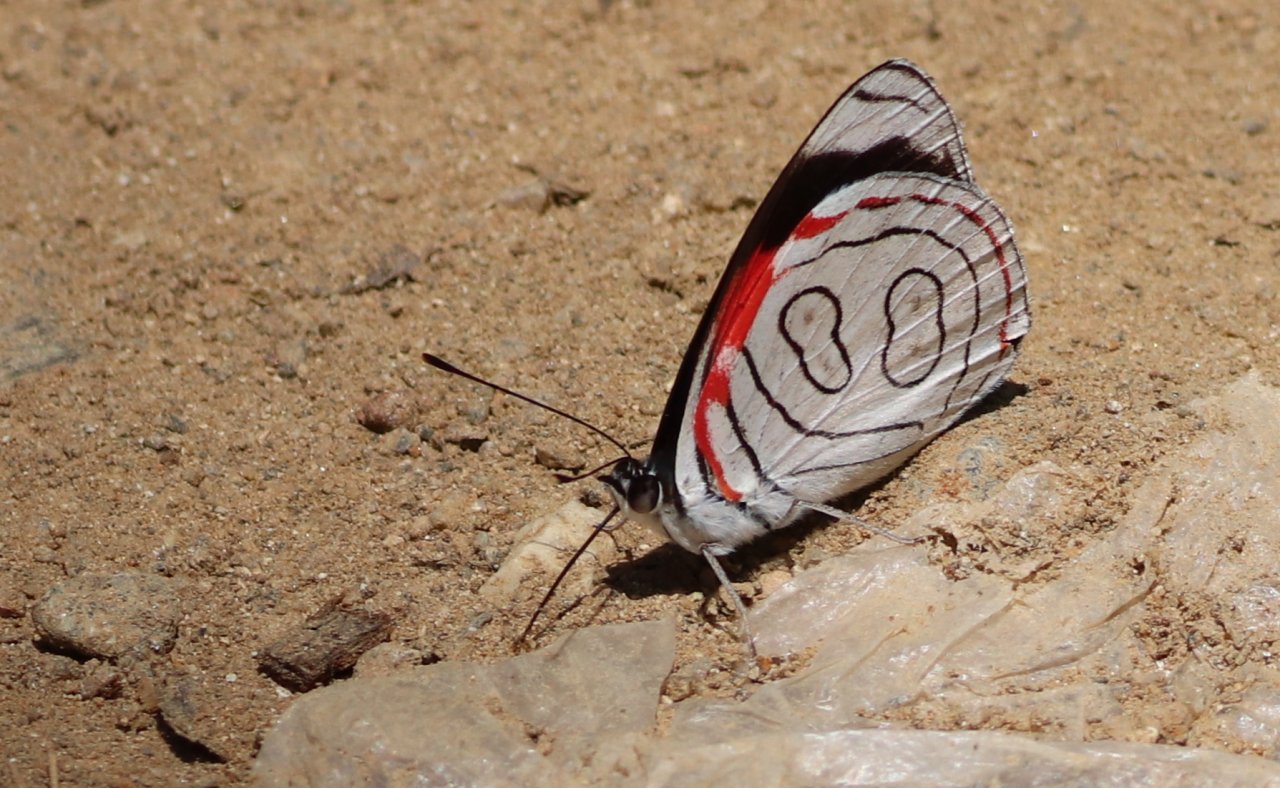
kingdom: Animalia
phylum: Arthropoda
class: Insecta
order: Lepidoptera
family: Nymphalidae
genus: Diaethria
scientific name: Diaethria astala
